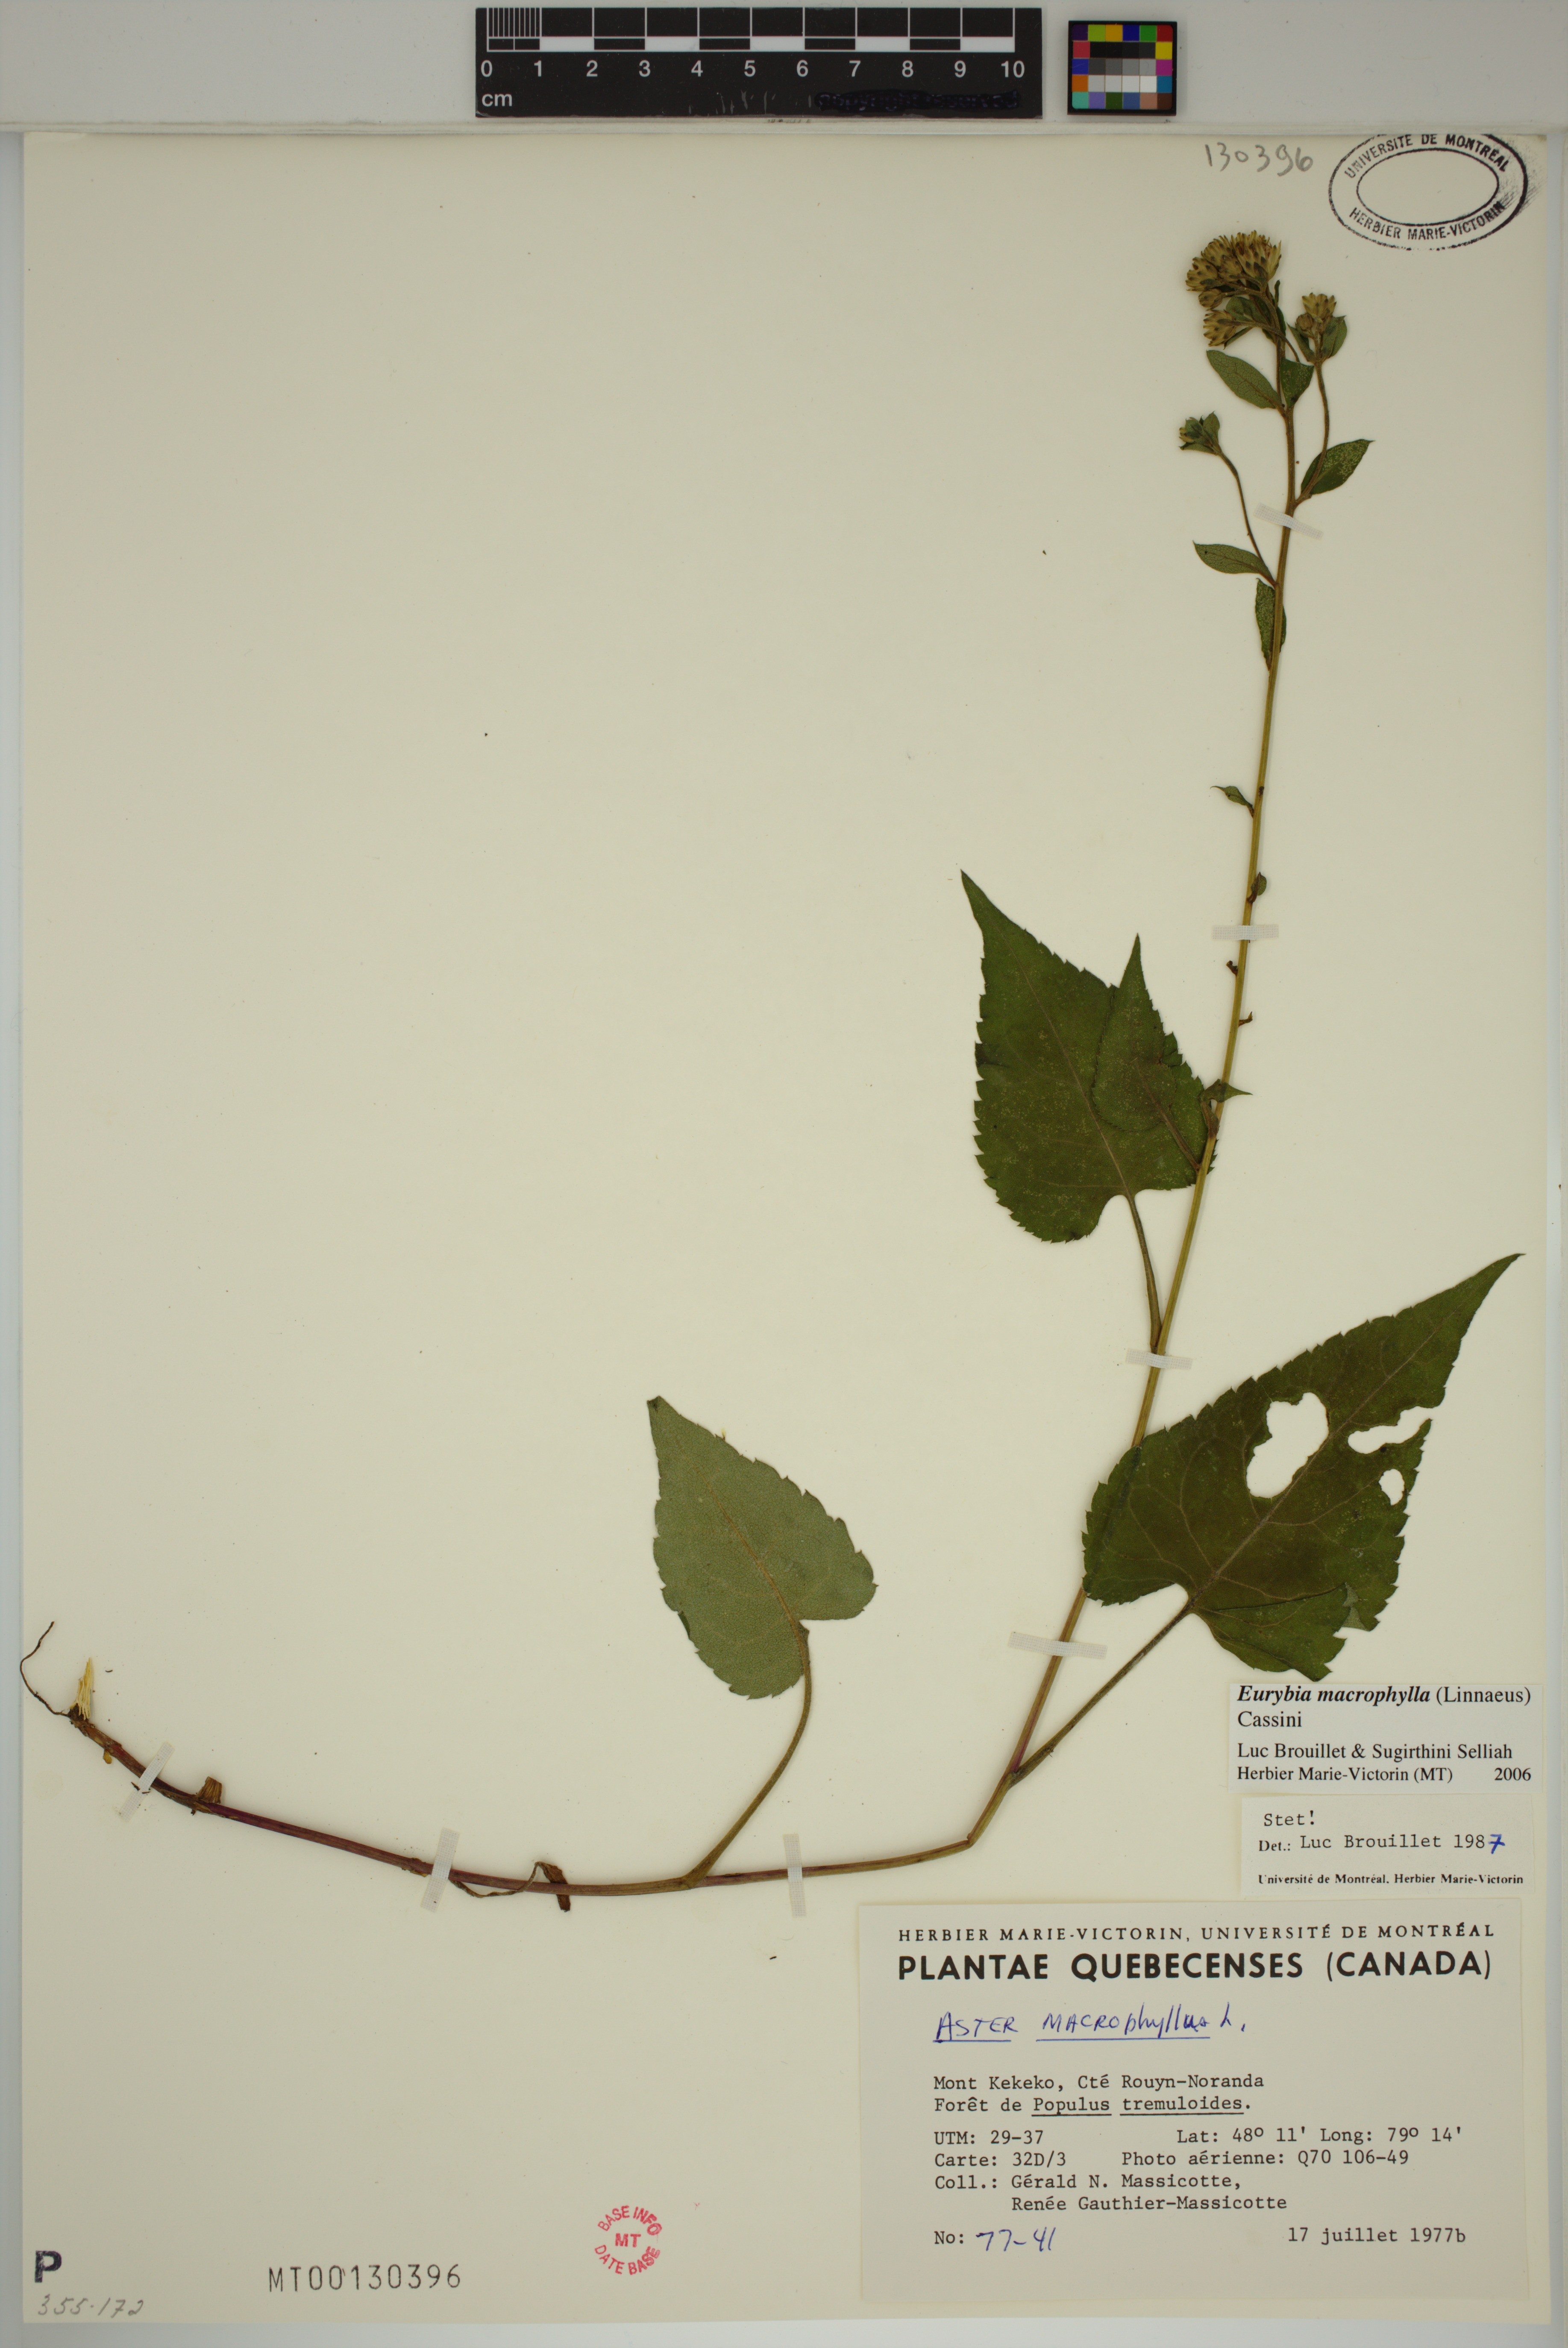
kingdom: Plantae
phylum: Tracheophyta
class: Magnoliopsida
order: Asterales
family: Asteraceae
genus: Eurybia
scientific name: Eurybia macrophylla
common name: Big-leaved aster
